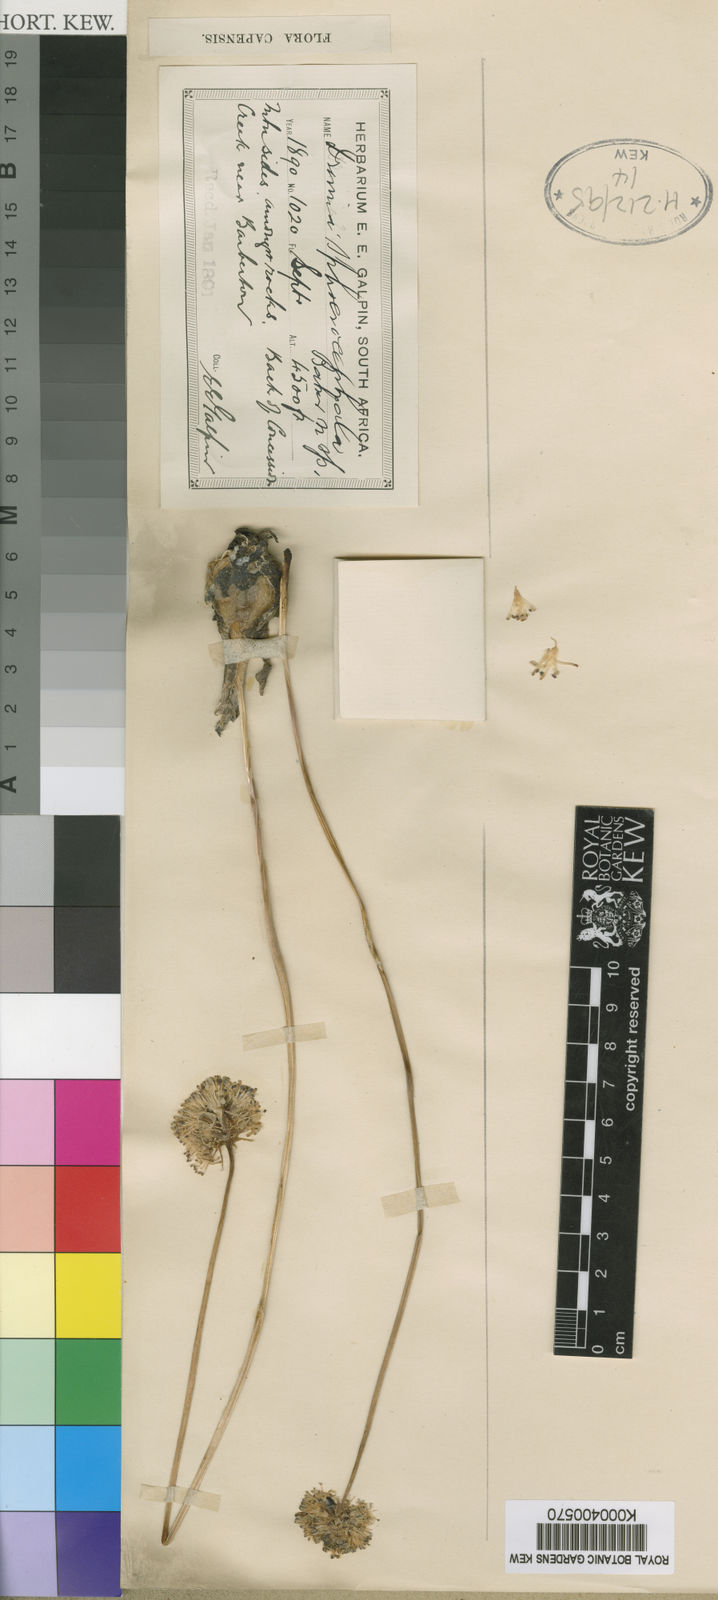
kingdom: Plantae
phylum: Tracheophyta
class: Liliopsida
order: Asparagales
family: Asparagaceae
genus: Drimia
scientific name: Drimia sphaerocephala
